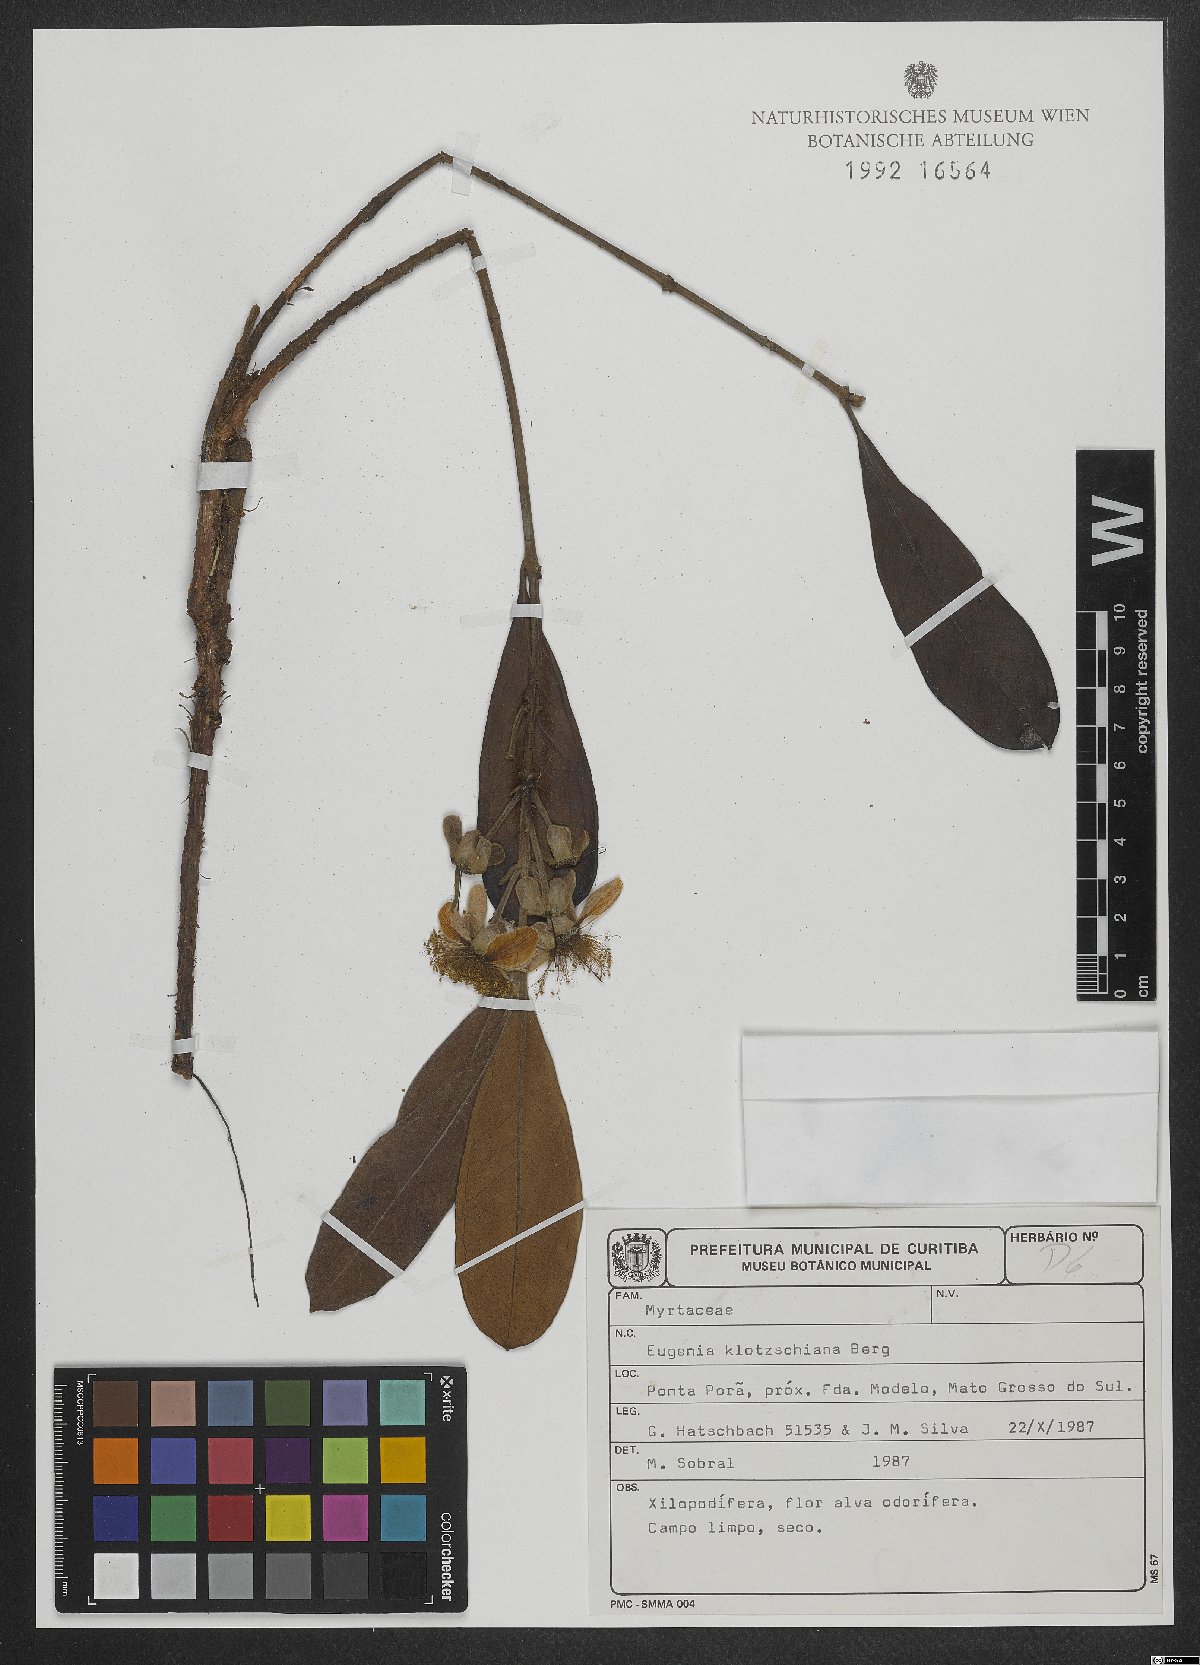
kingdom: Plantae
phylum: Tracheophyta
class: Magnoliopsida
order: Myrtales
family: Myrtaceae
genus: Eugenia
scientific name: Eugenia klotzschiana
